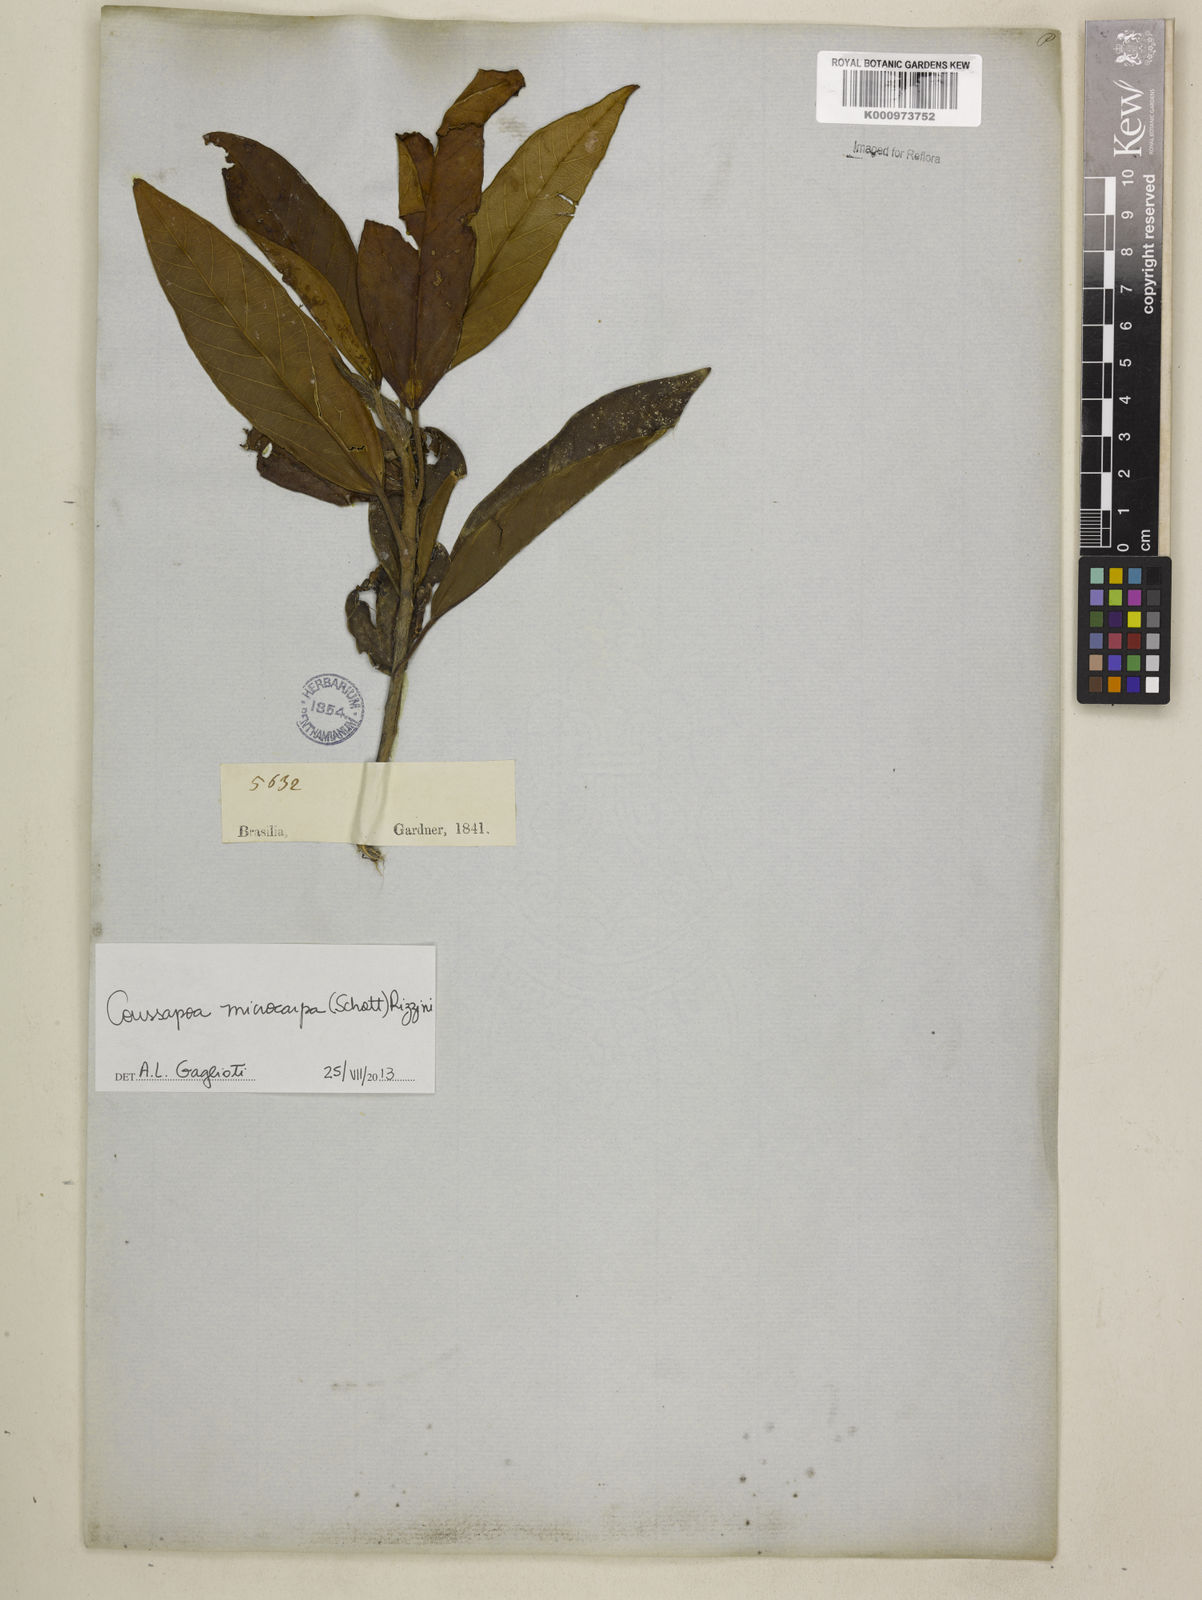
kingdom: Plantae
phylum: Tracheophyta
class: Magnoliopsida
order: Rosales
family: Urticaceae
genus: Coussapoa
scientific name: Coussapoa microcarpa
